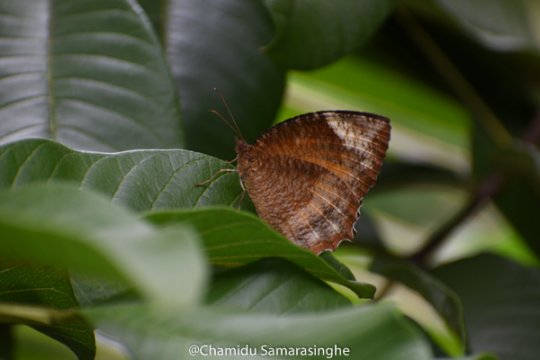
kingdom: Animalia
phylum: Arthropoda
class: Insecta
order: Lepidoptera
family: Nymphalidae
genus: Elymnias
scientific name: Elymnias hypermnestra
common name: Common Palmfly
